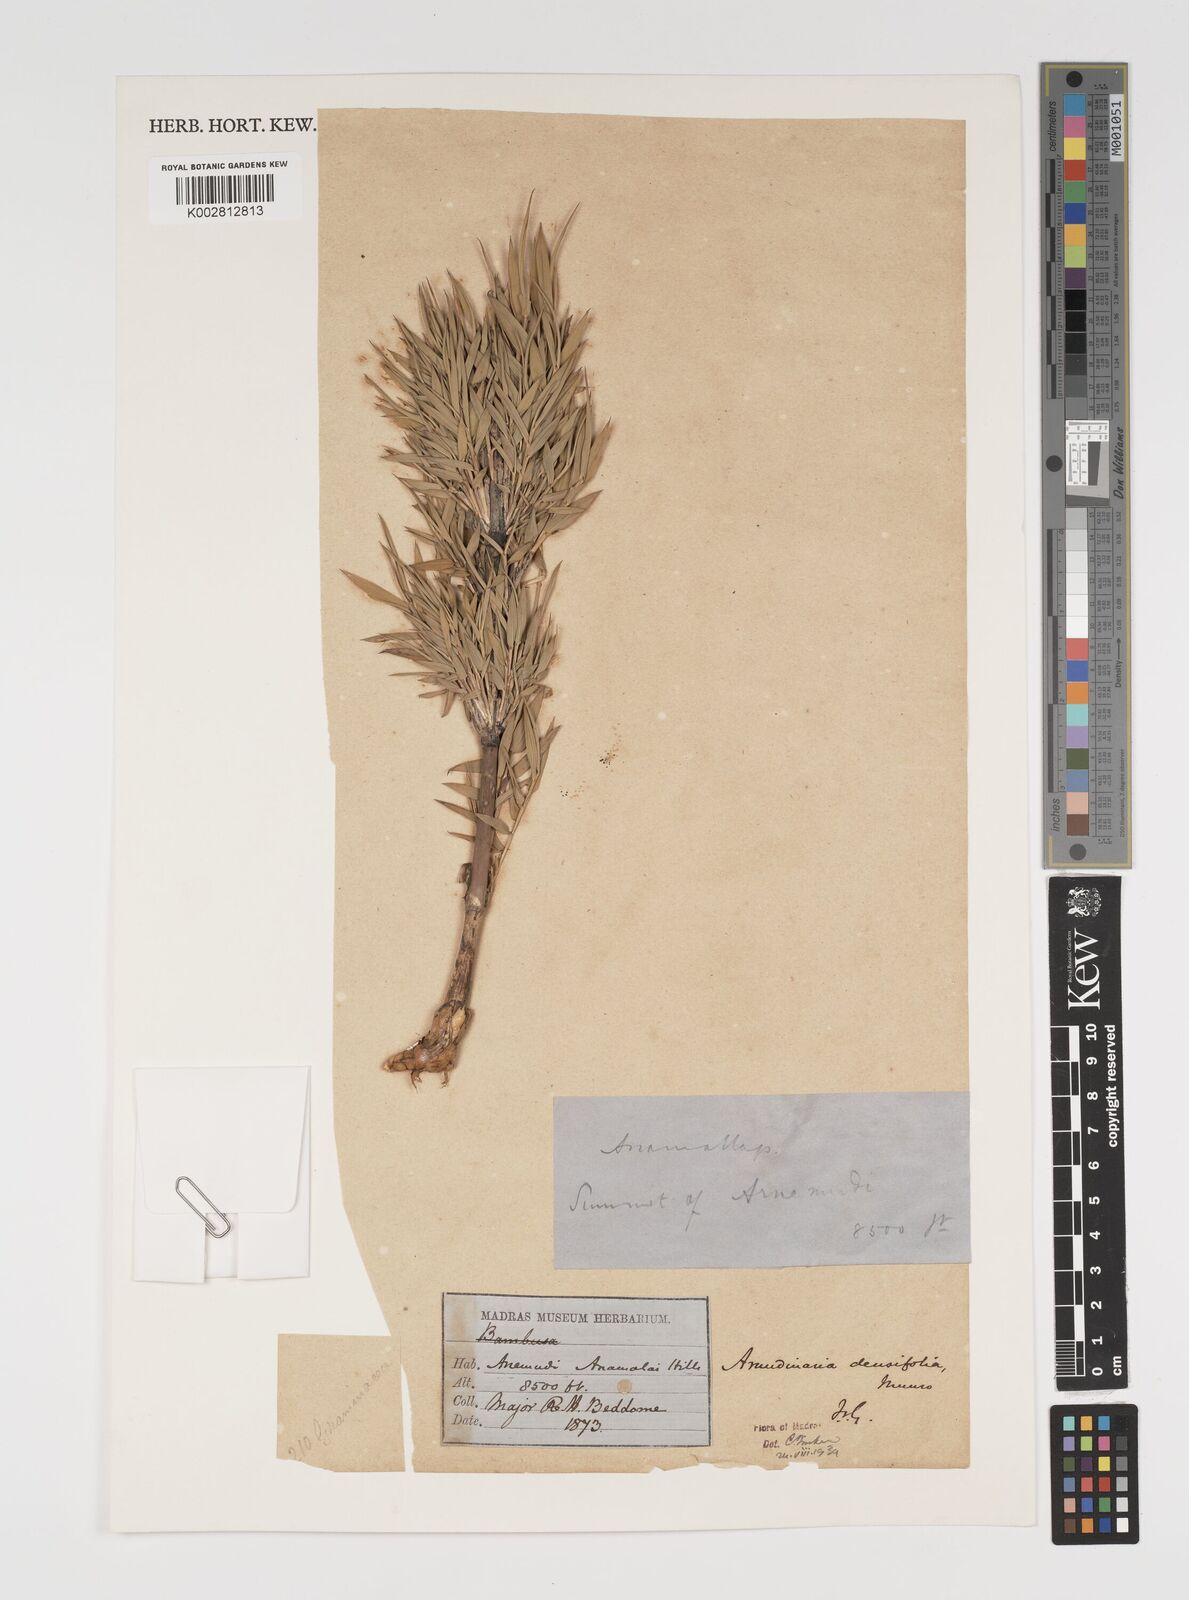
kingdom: Plantae
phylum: Tracheophyta
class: Liliopsida
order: Poales
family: Poaceae
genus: Kuruna
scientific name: Kuruna densifolia
